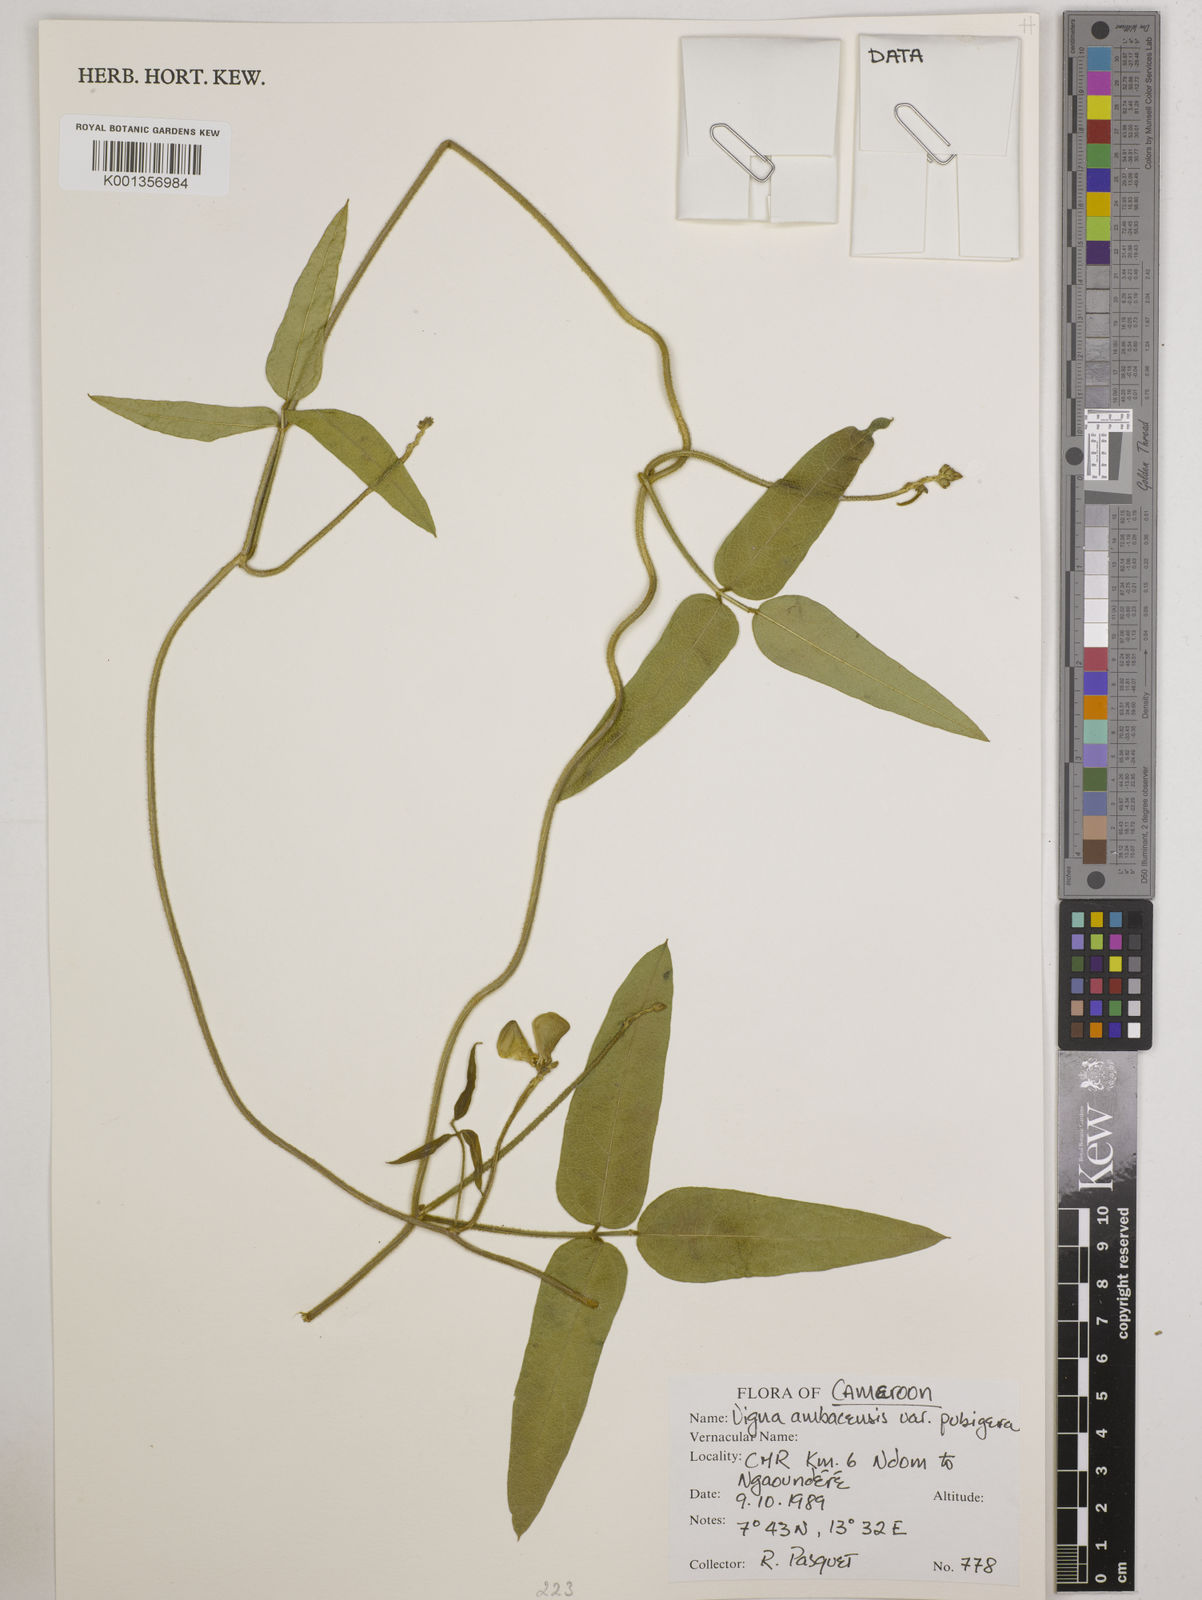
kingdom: Plantae
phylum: Tracheophyta
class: Magnoliopsida
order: Fabales
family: Fabaceae
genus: Vigna
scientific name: Vigna pubigera
